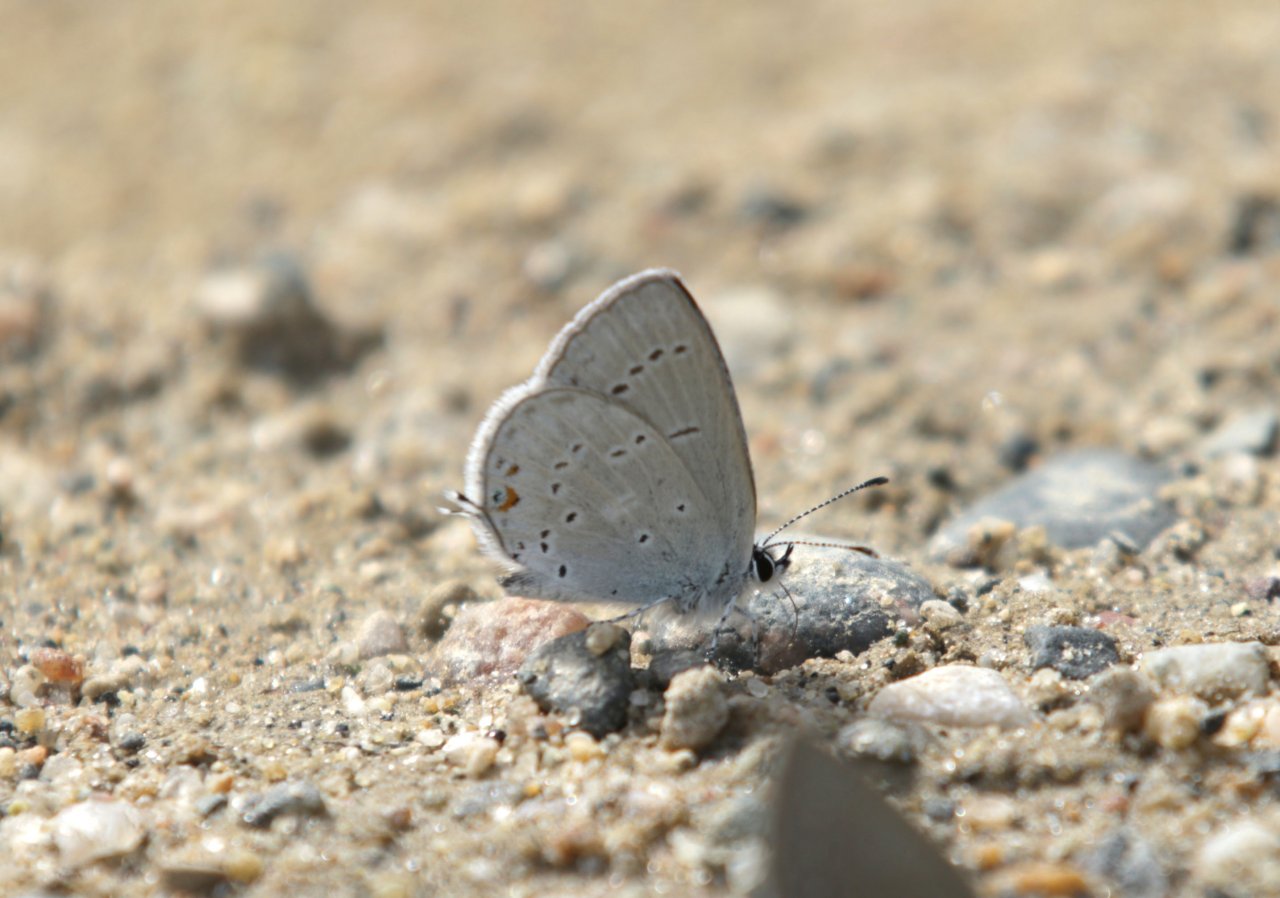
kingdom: Animalia
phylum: Arthropoda
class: Insecta
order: Lepidoptera
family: Lycaenidae
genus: Elkalyce
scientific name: Elkalyce amyntula
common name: Western Tailed-Blue
